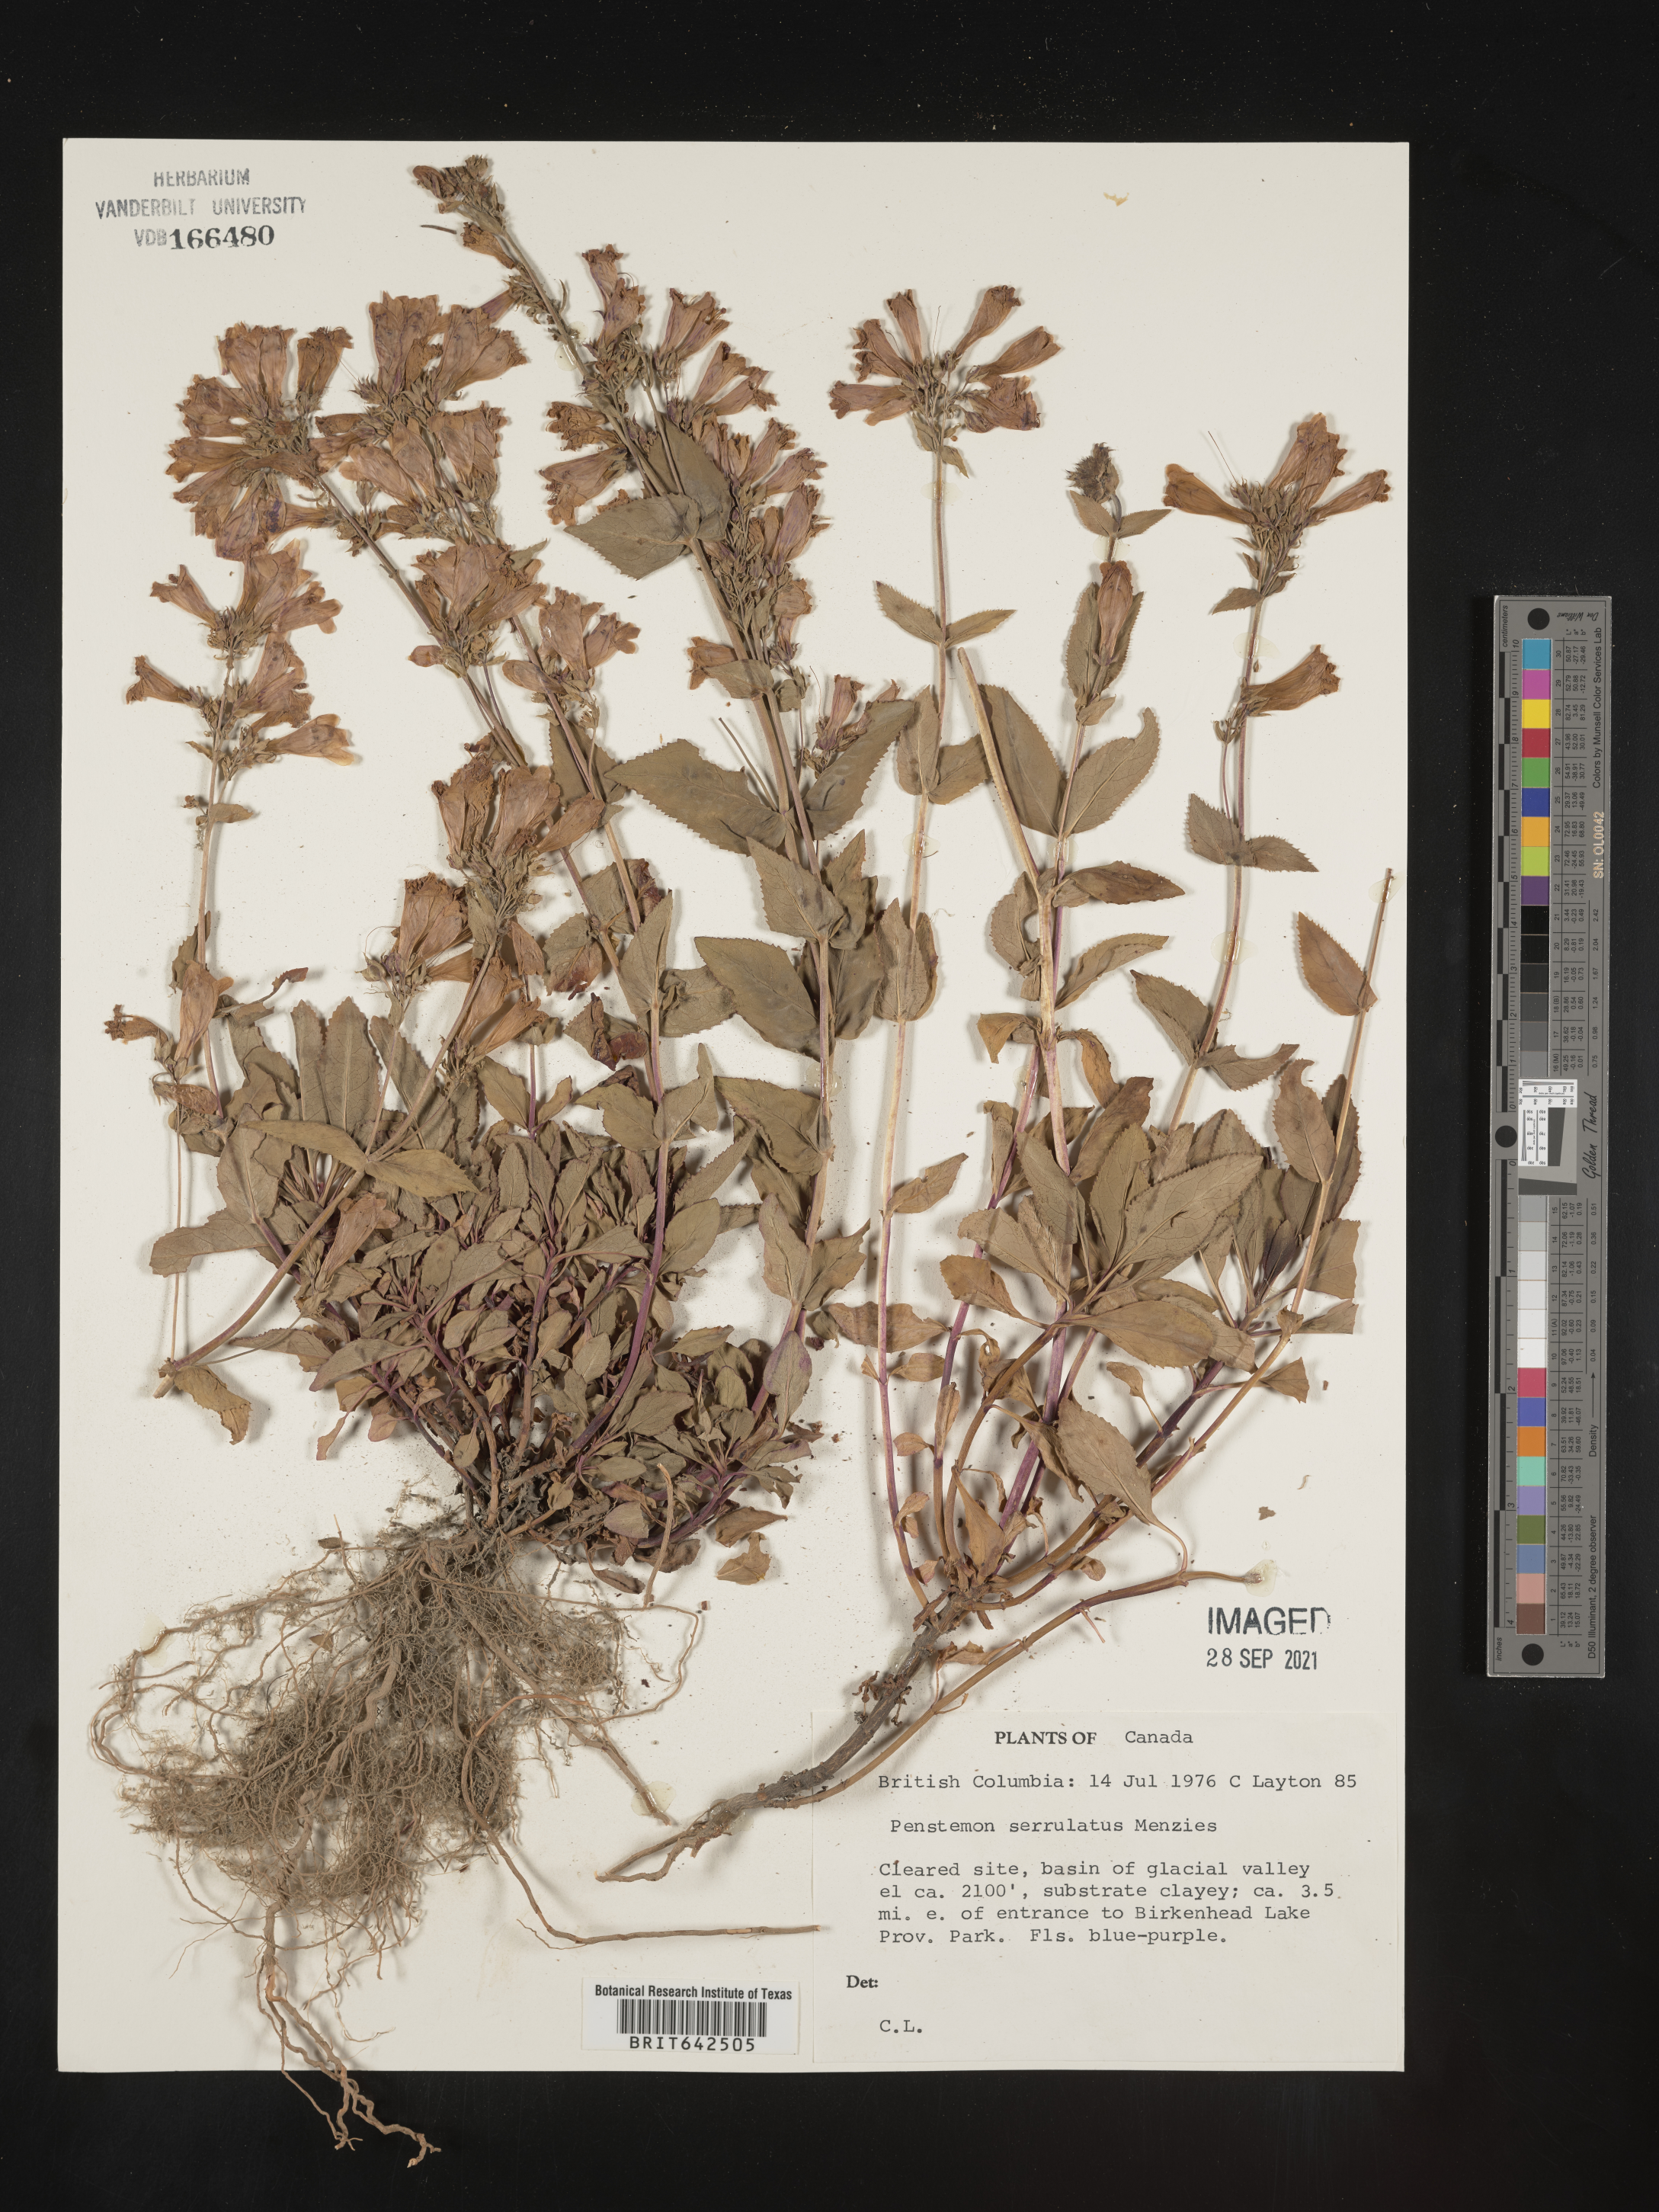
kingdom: Plantae
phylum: Tracheophyta
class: Magnoliopsida
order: Lamiales
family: Plantaginaceae
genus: Penstemon
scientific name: Penstemon
